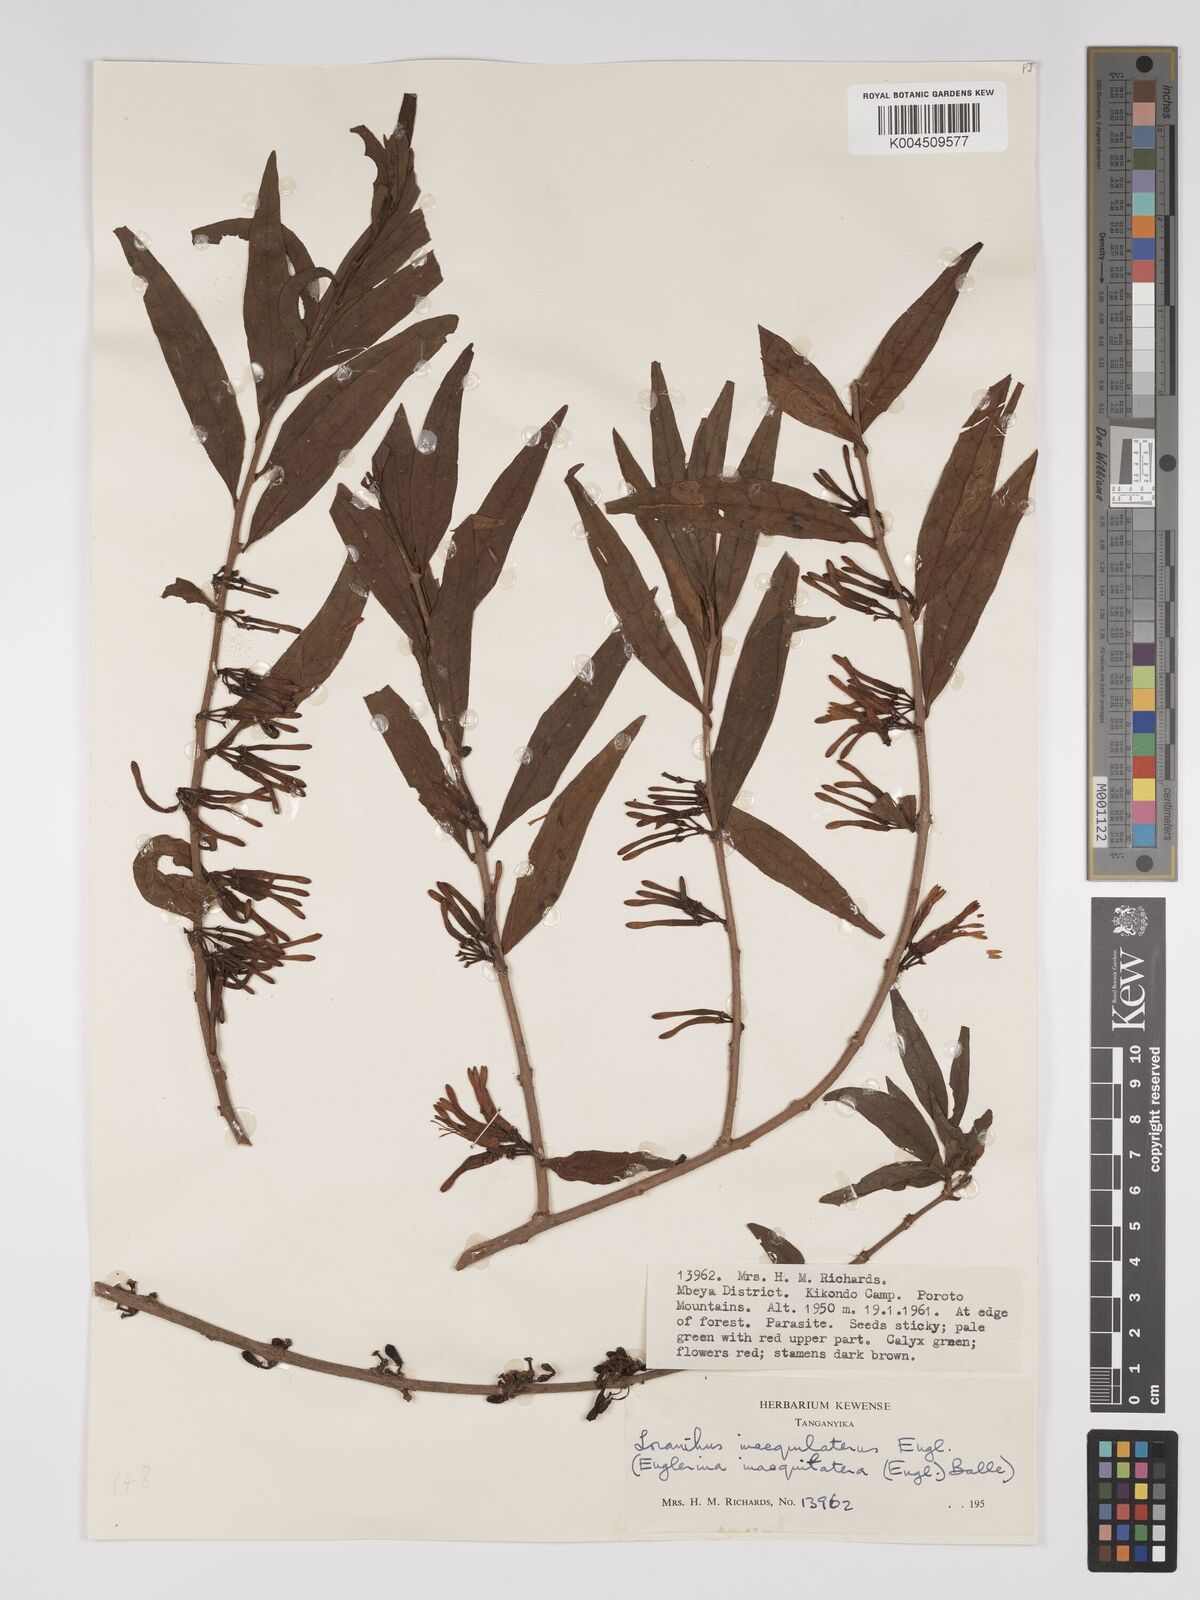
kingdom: Plantae
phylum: Tracheophyta
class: Magnoliopsida
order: Santalales
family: Loranthaceae
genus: Englerina
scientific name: Englerina inaequilatera
